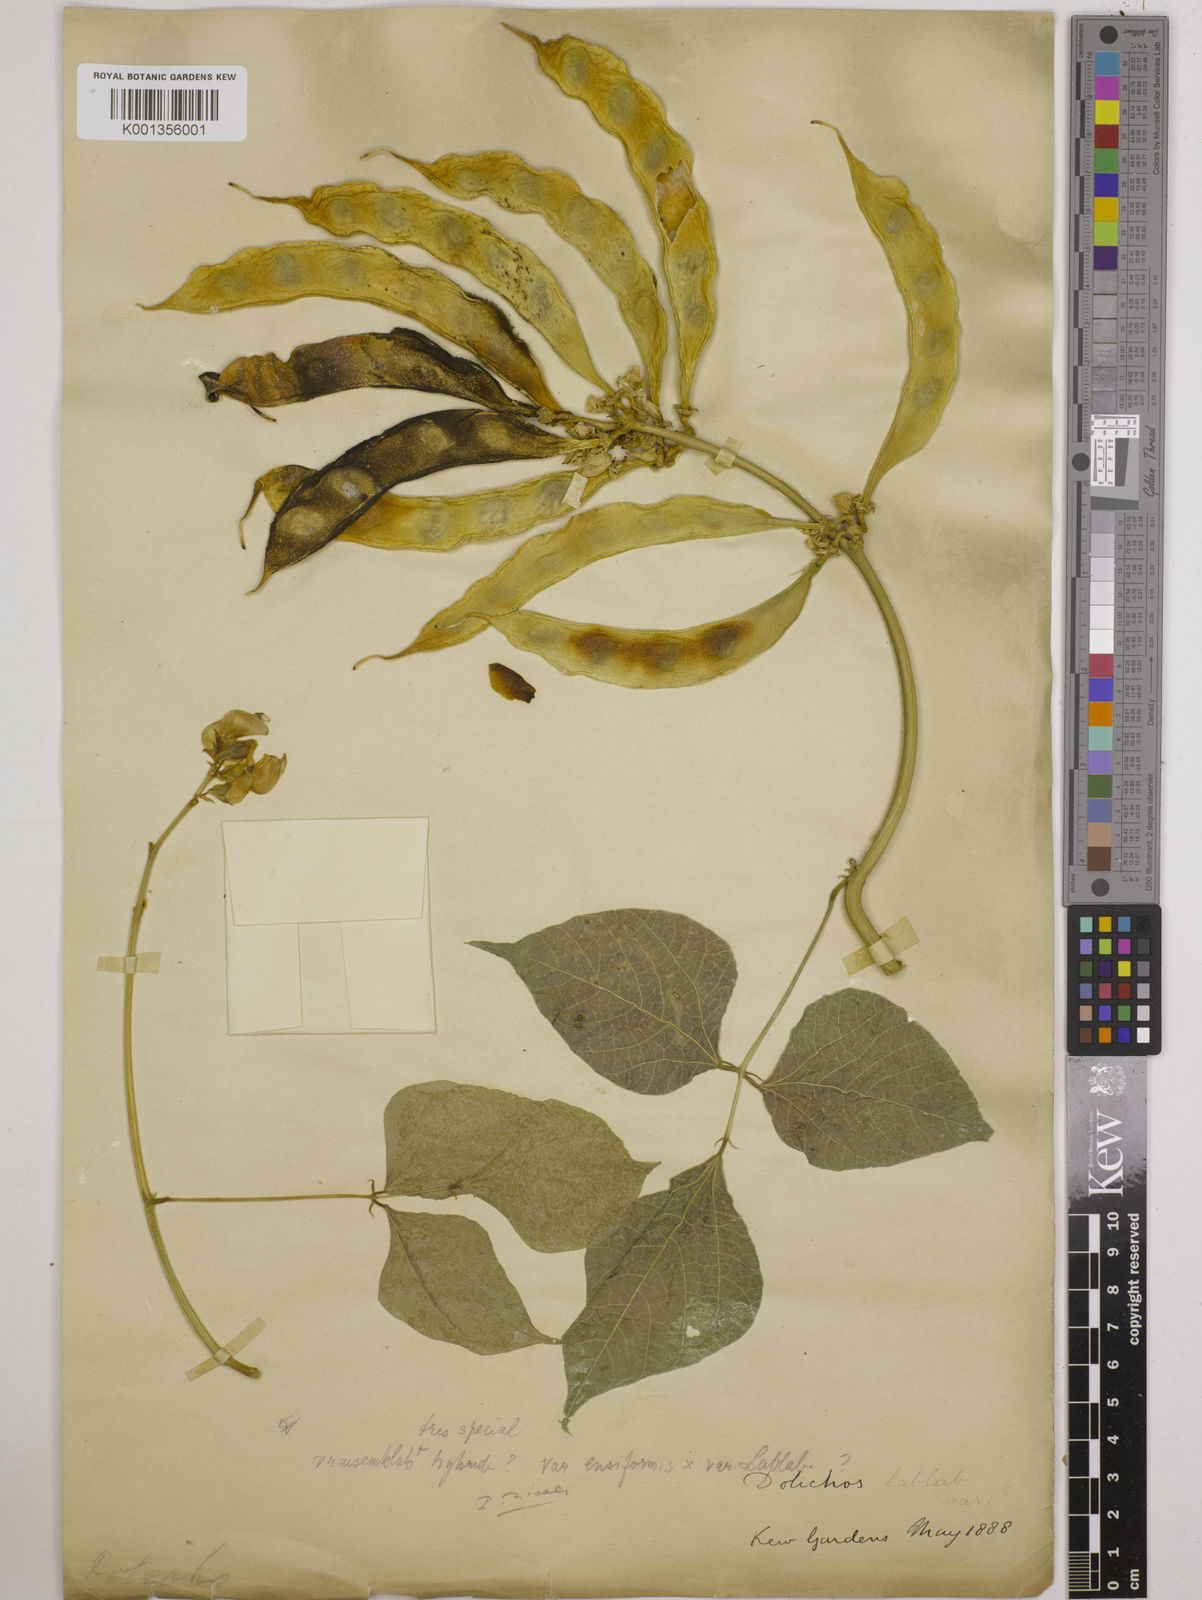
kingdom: Plantae
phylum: Tracheophyta
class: Magnoliopsida
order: Fabales
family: Fabaceae
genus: Lablab
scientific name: Lablab purpureus
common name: Lablab-bean
